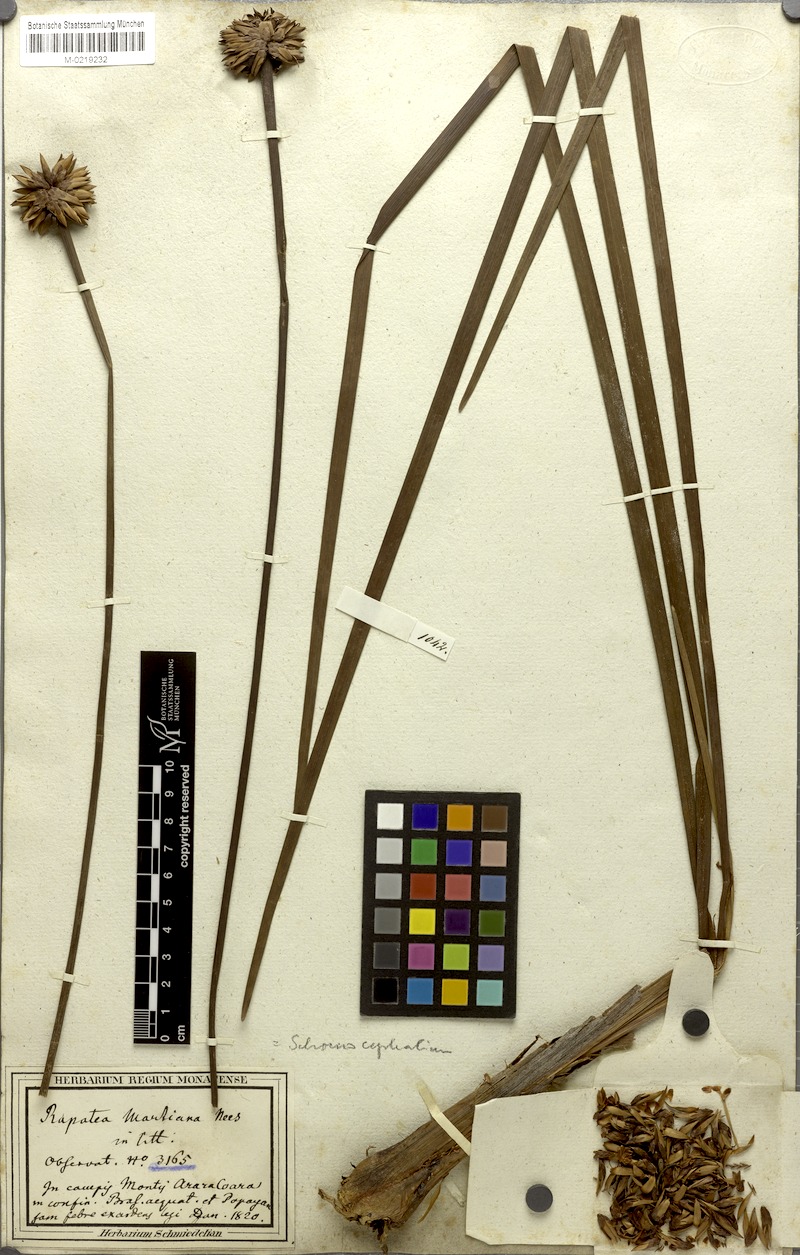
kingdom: Plantae
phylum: Tracheophyta
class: Liliopsida
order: Poales
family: Rapateaceae
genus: Schoenocephalium
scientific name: Schoenocephalium martianum
